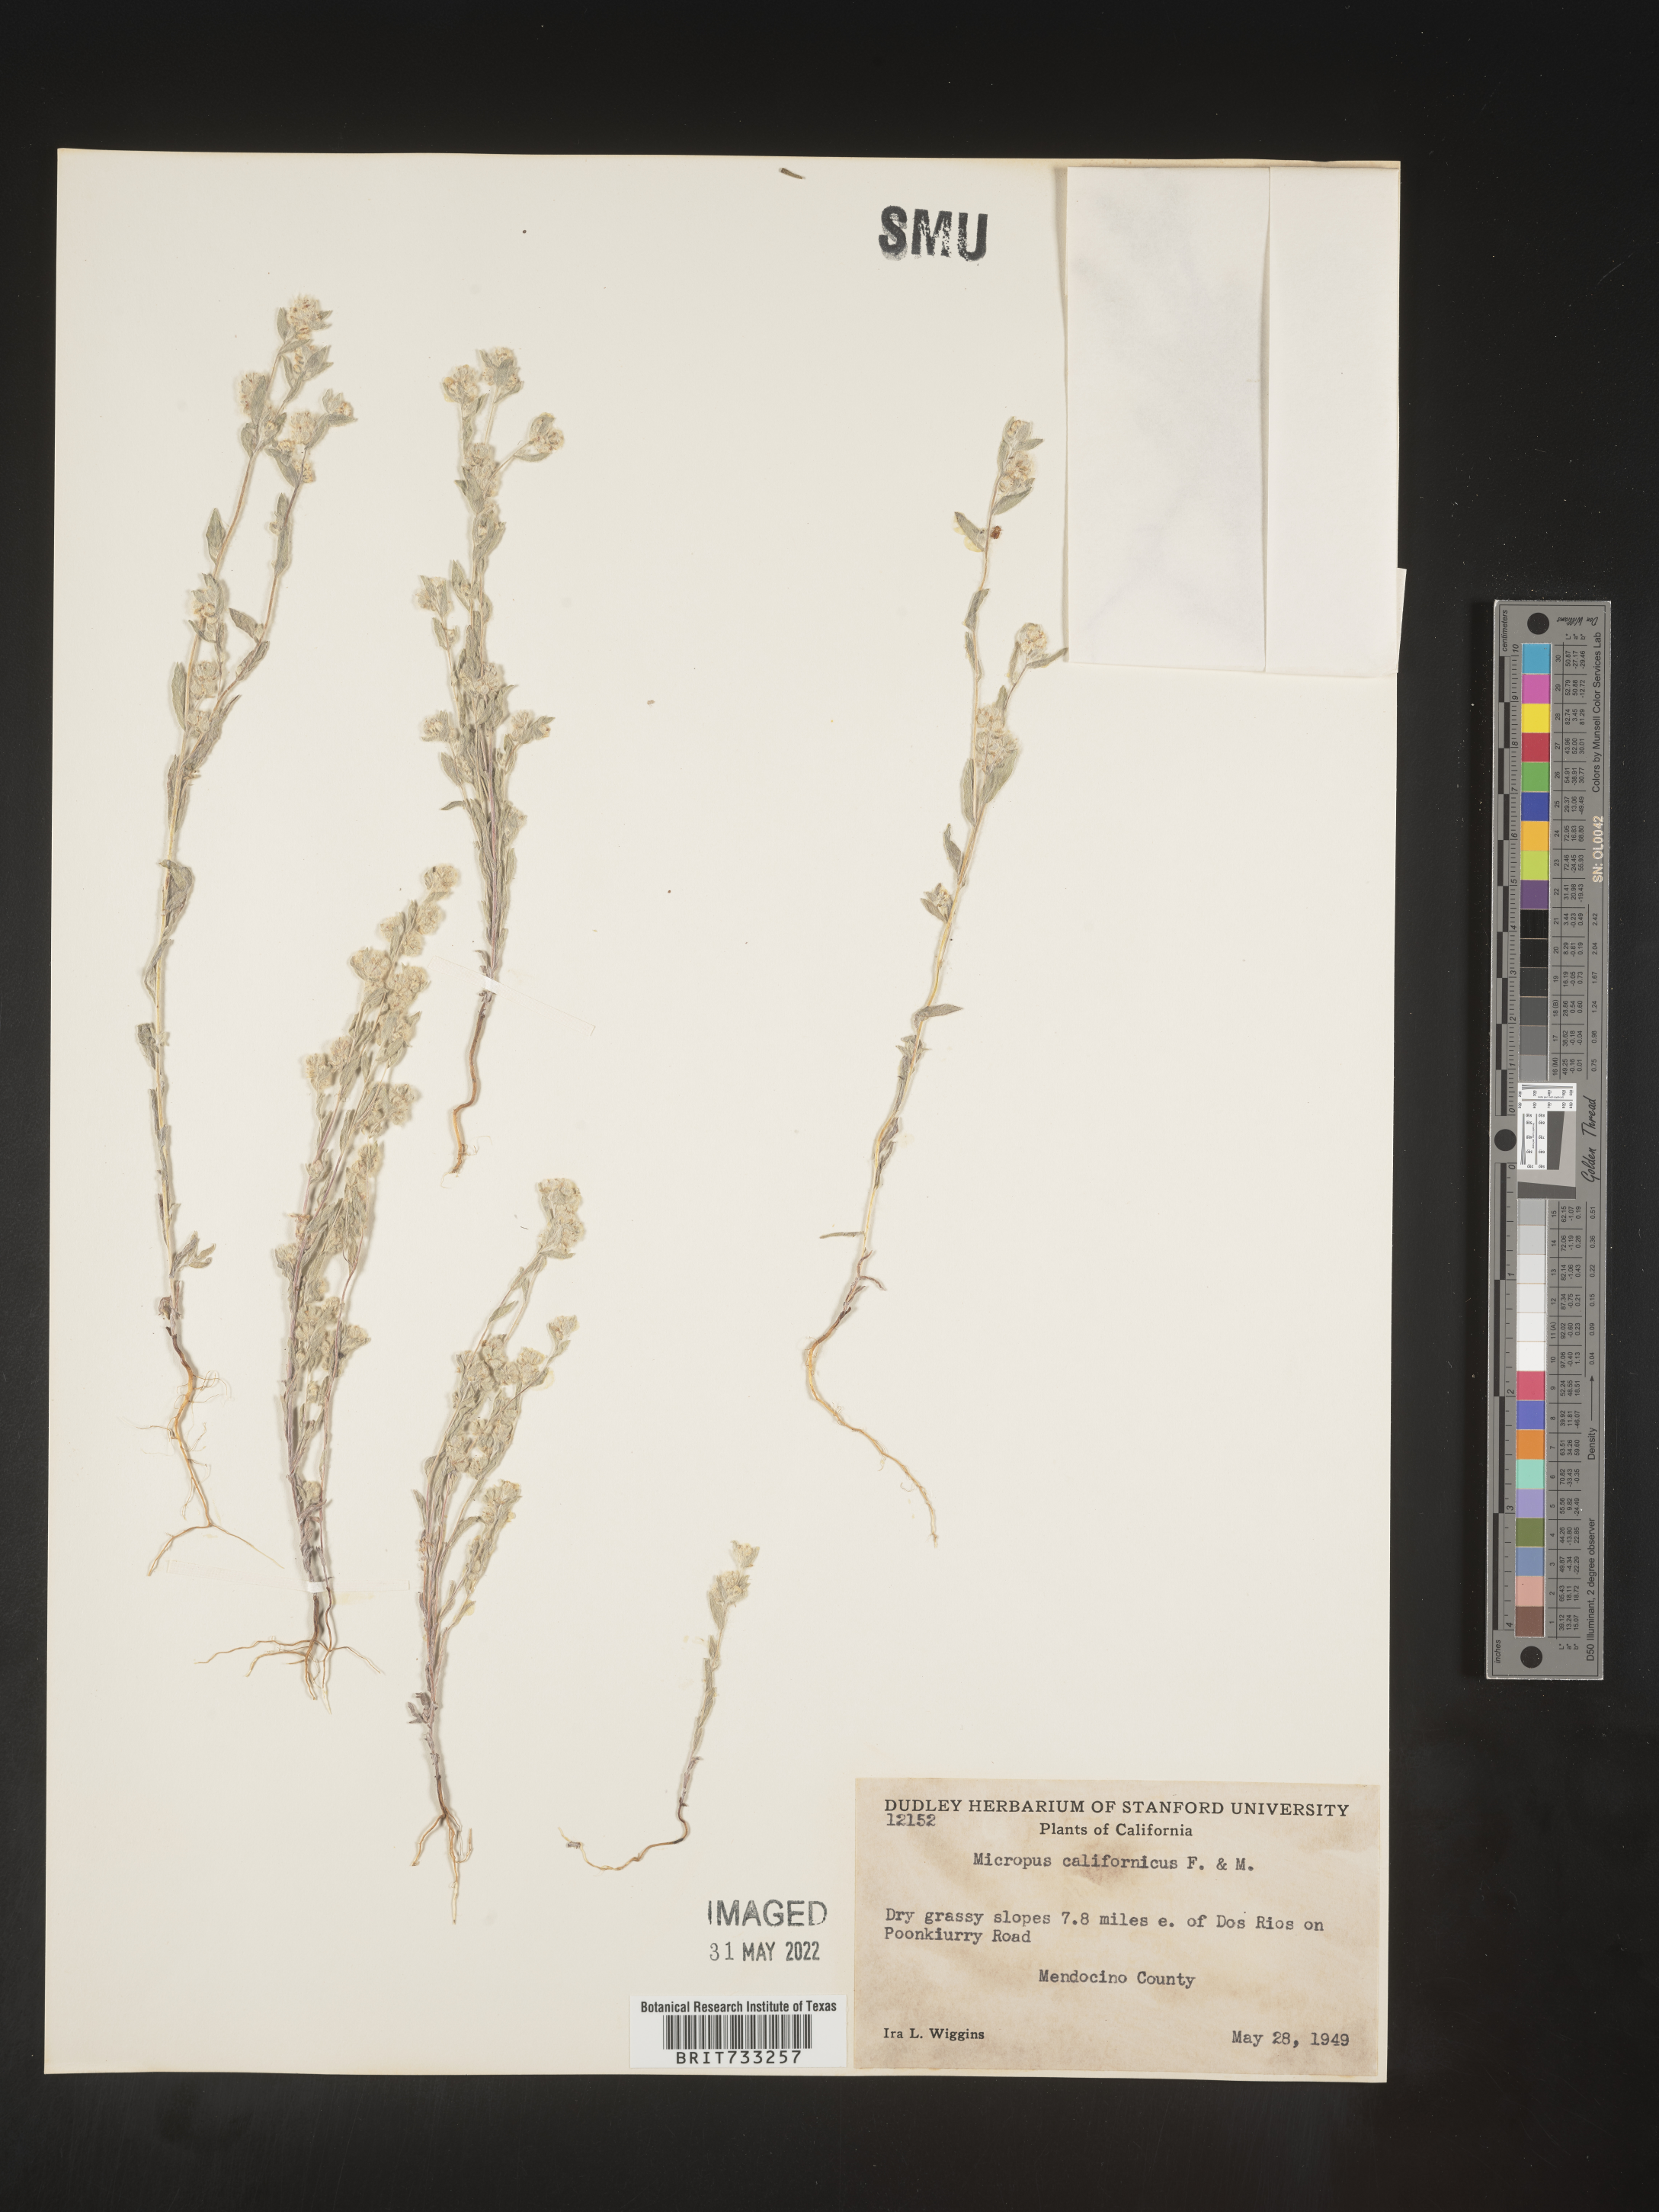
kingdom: Plantae
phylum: Tracheophyta
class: Magnoliopsida
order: Asterales
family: Asteraceae
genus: Micropus
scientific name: Micropus
